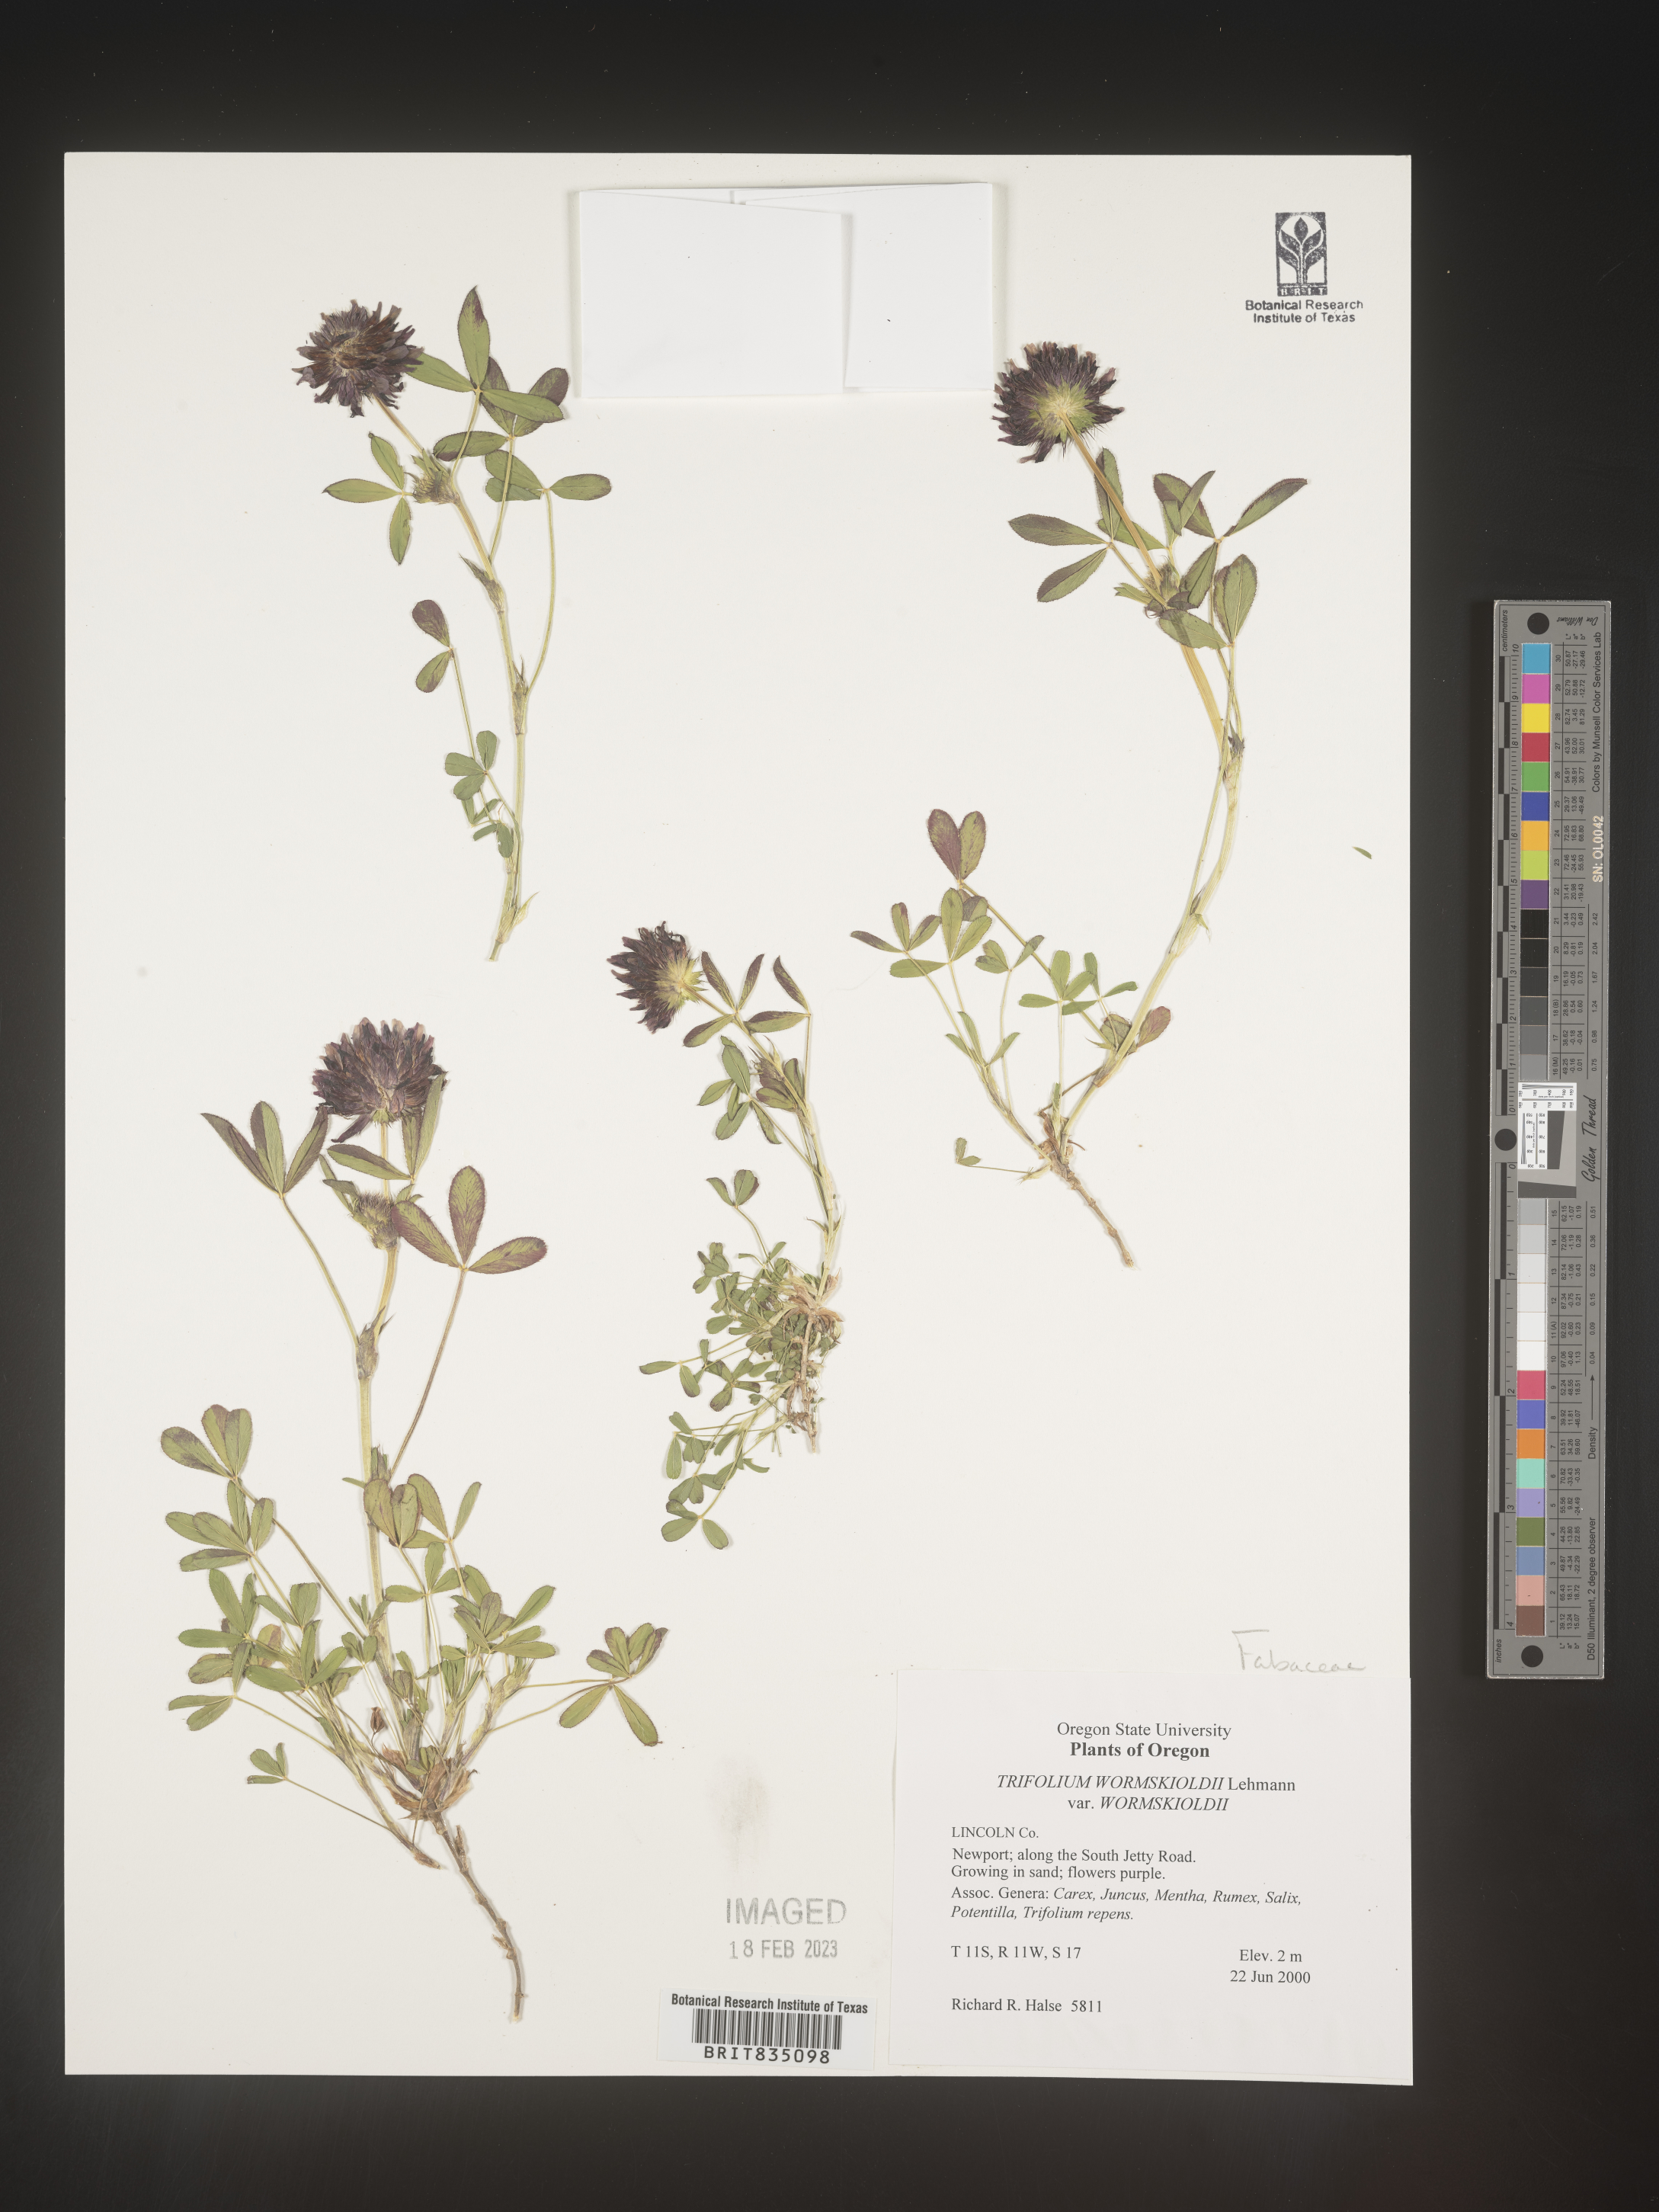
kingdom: Plantae
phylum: Tracheophyta
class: Magnoliopsida
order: Fabales
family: Fabaceae
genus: Trifolium
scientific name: Trifolium wormskioldii
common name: Springbank clover
